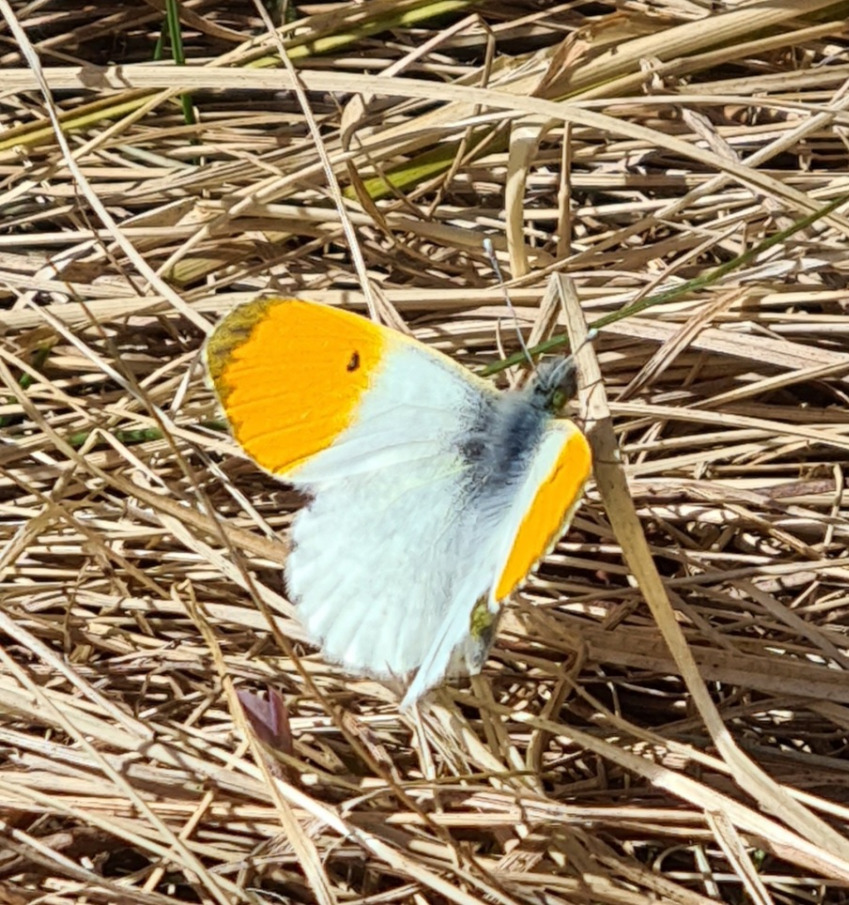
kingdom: Animalia
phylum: Arthropoda
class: Insecta
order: Lepidoptera
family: Pieridae
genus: Anthocharis
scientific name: Anthocharis cardamines
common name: Aurora
